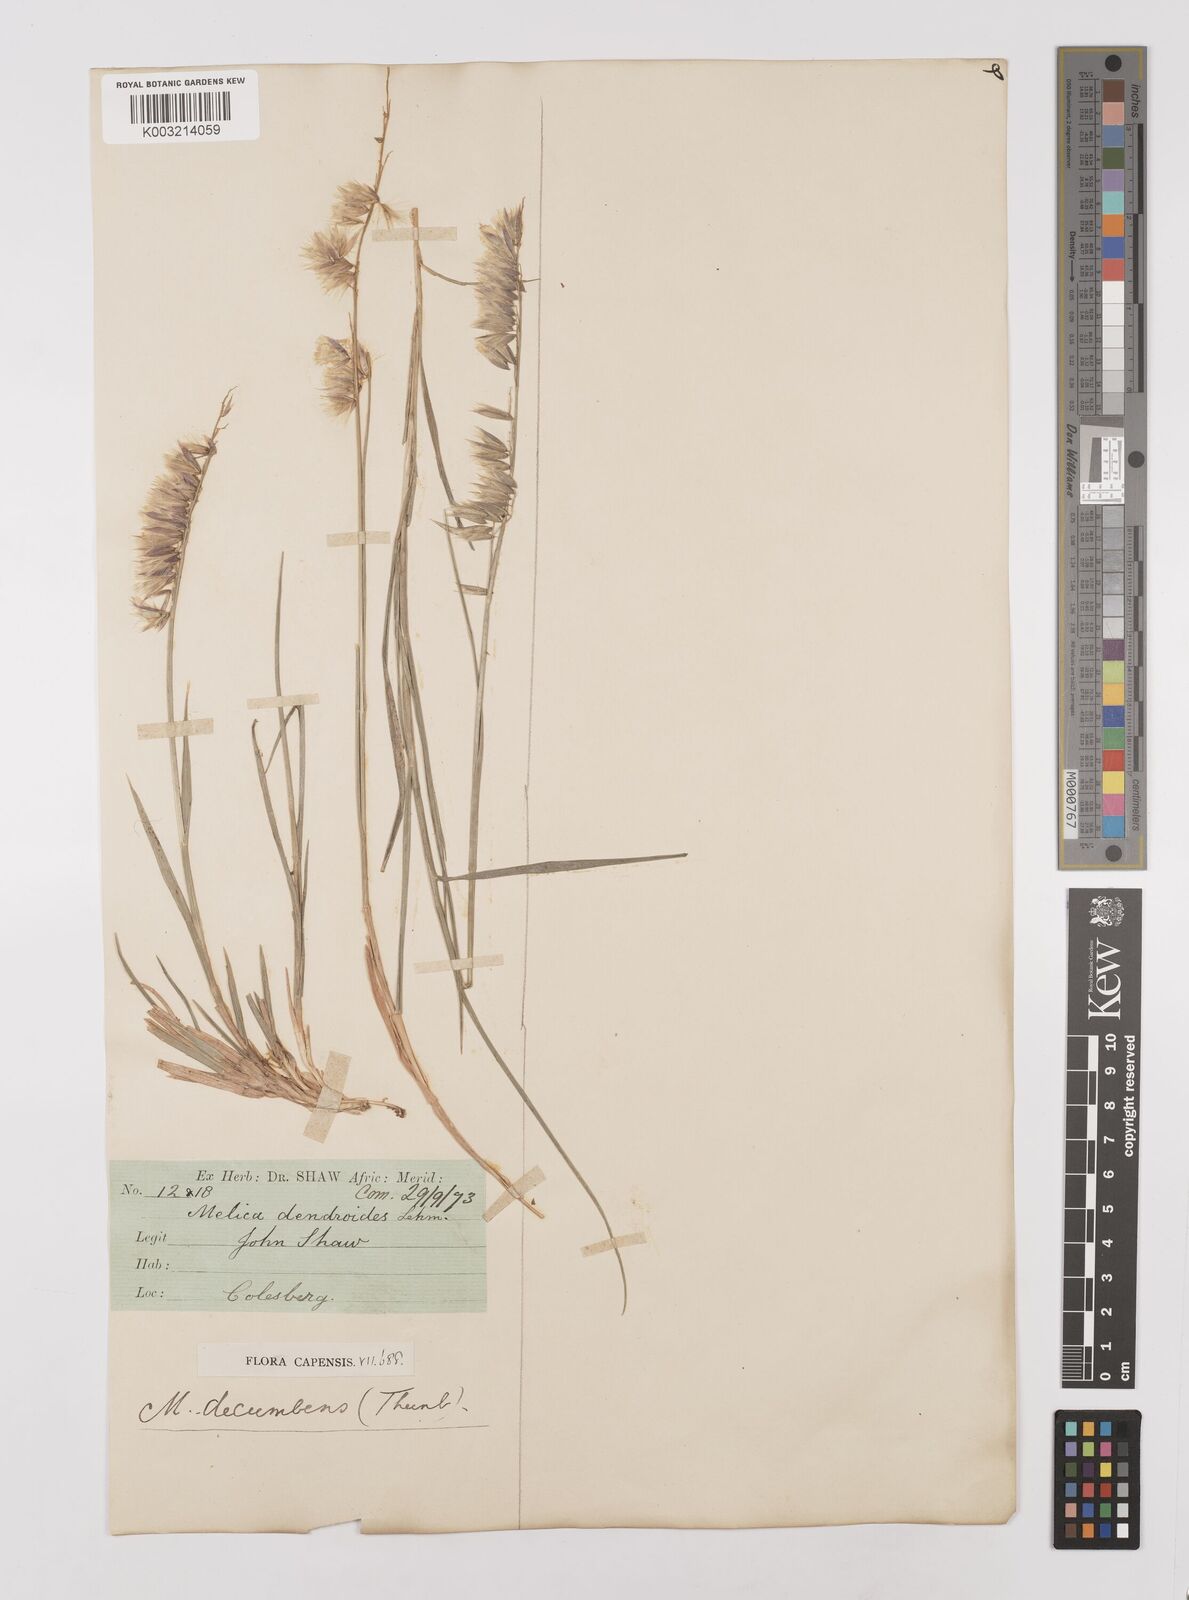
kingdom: Plantae
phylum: Tracheophyta
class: Liliopsida
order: Poales
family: Poaceae
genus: Melica
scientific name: Melica dendroides
